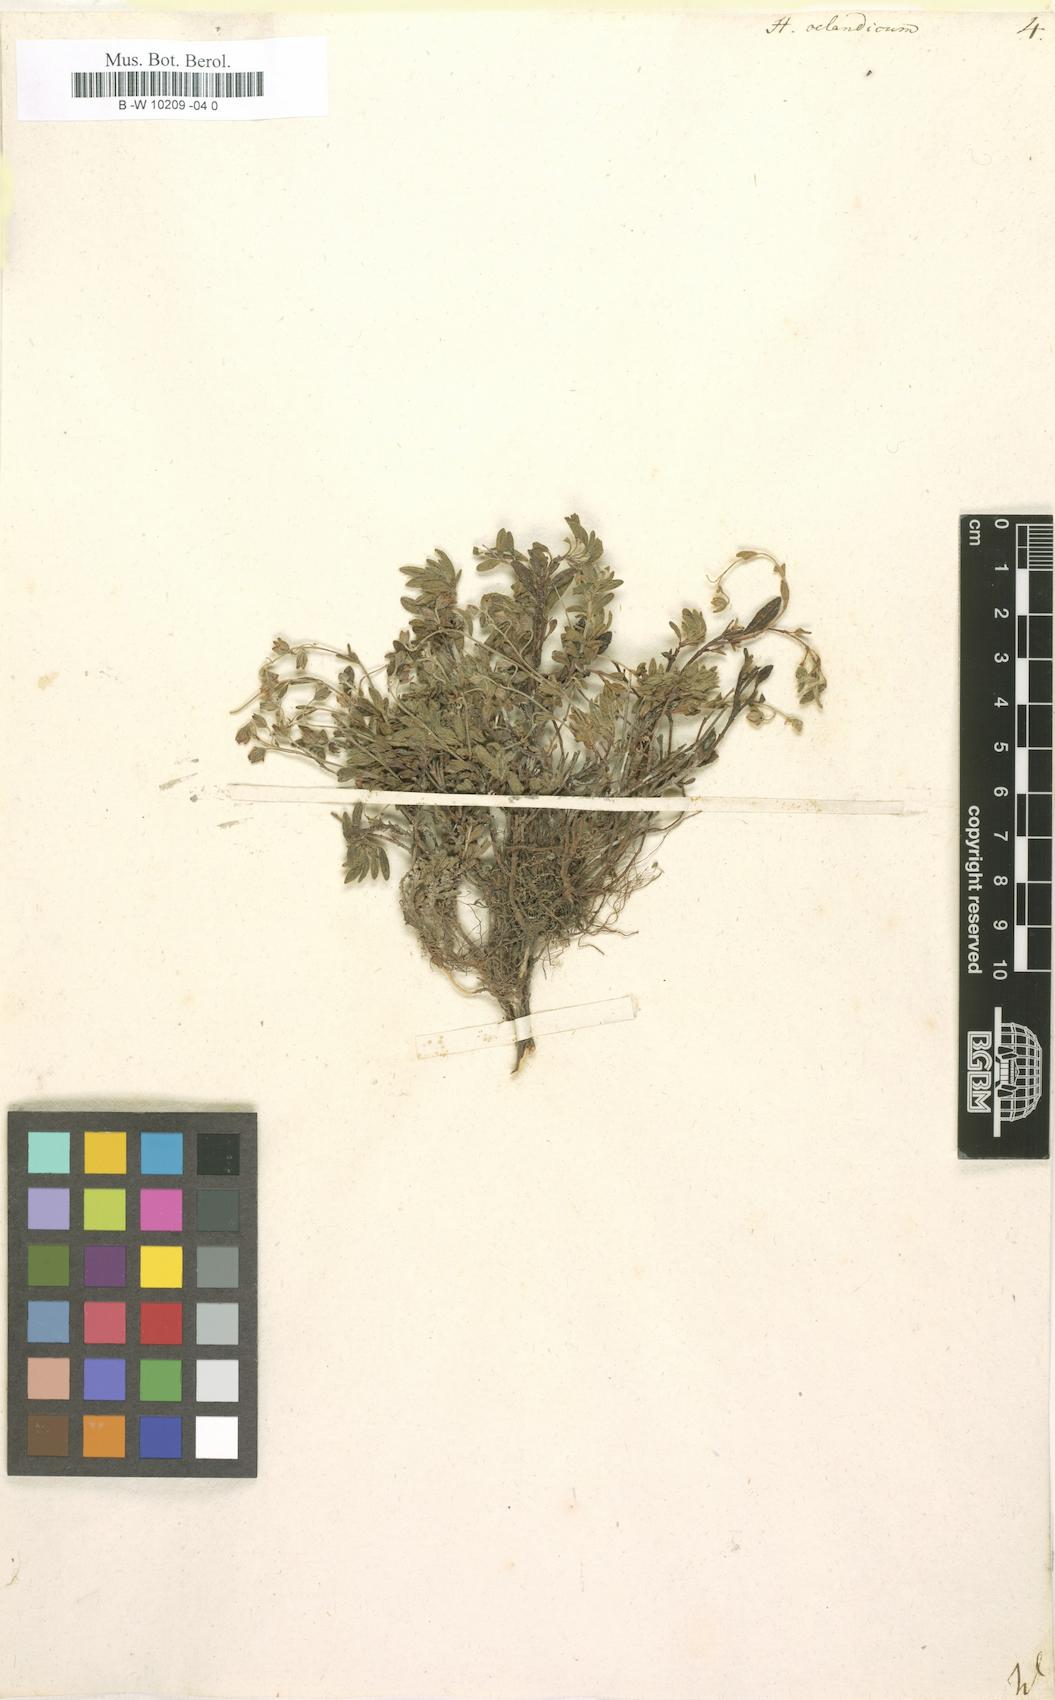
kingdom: Plantae
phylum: Tracheophyta
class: Magnoliopsida
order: Malvales
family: Cistaceae
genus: Helianthemum
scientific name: Helianthemum oelandicum
